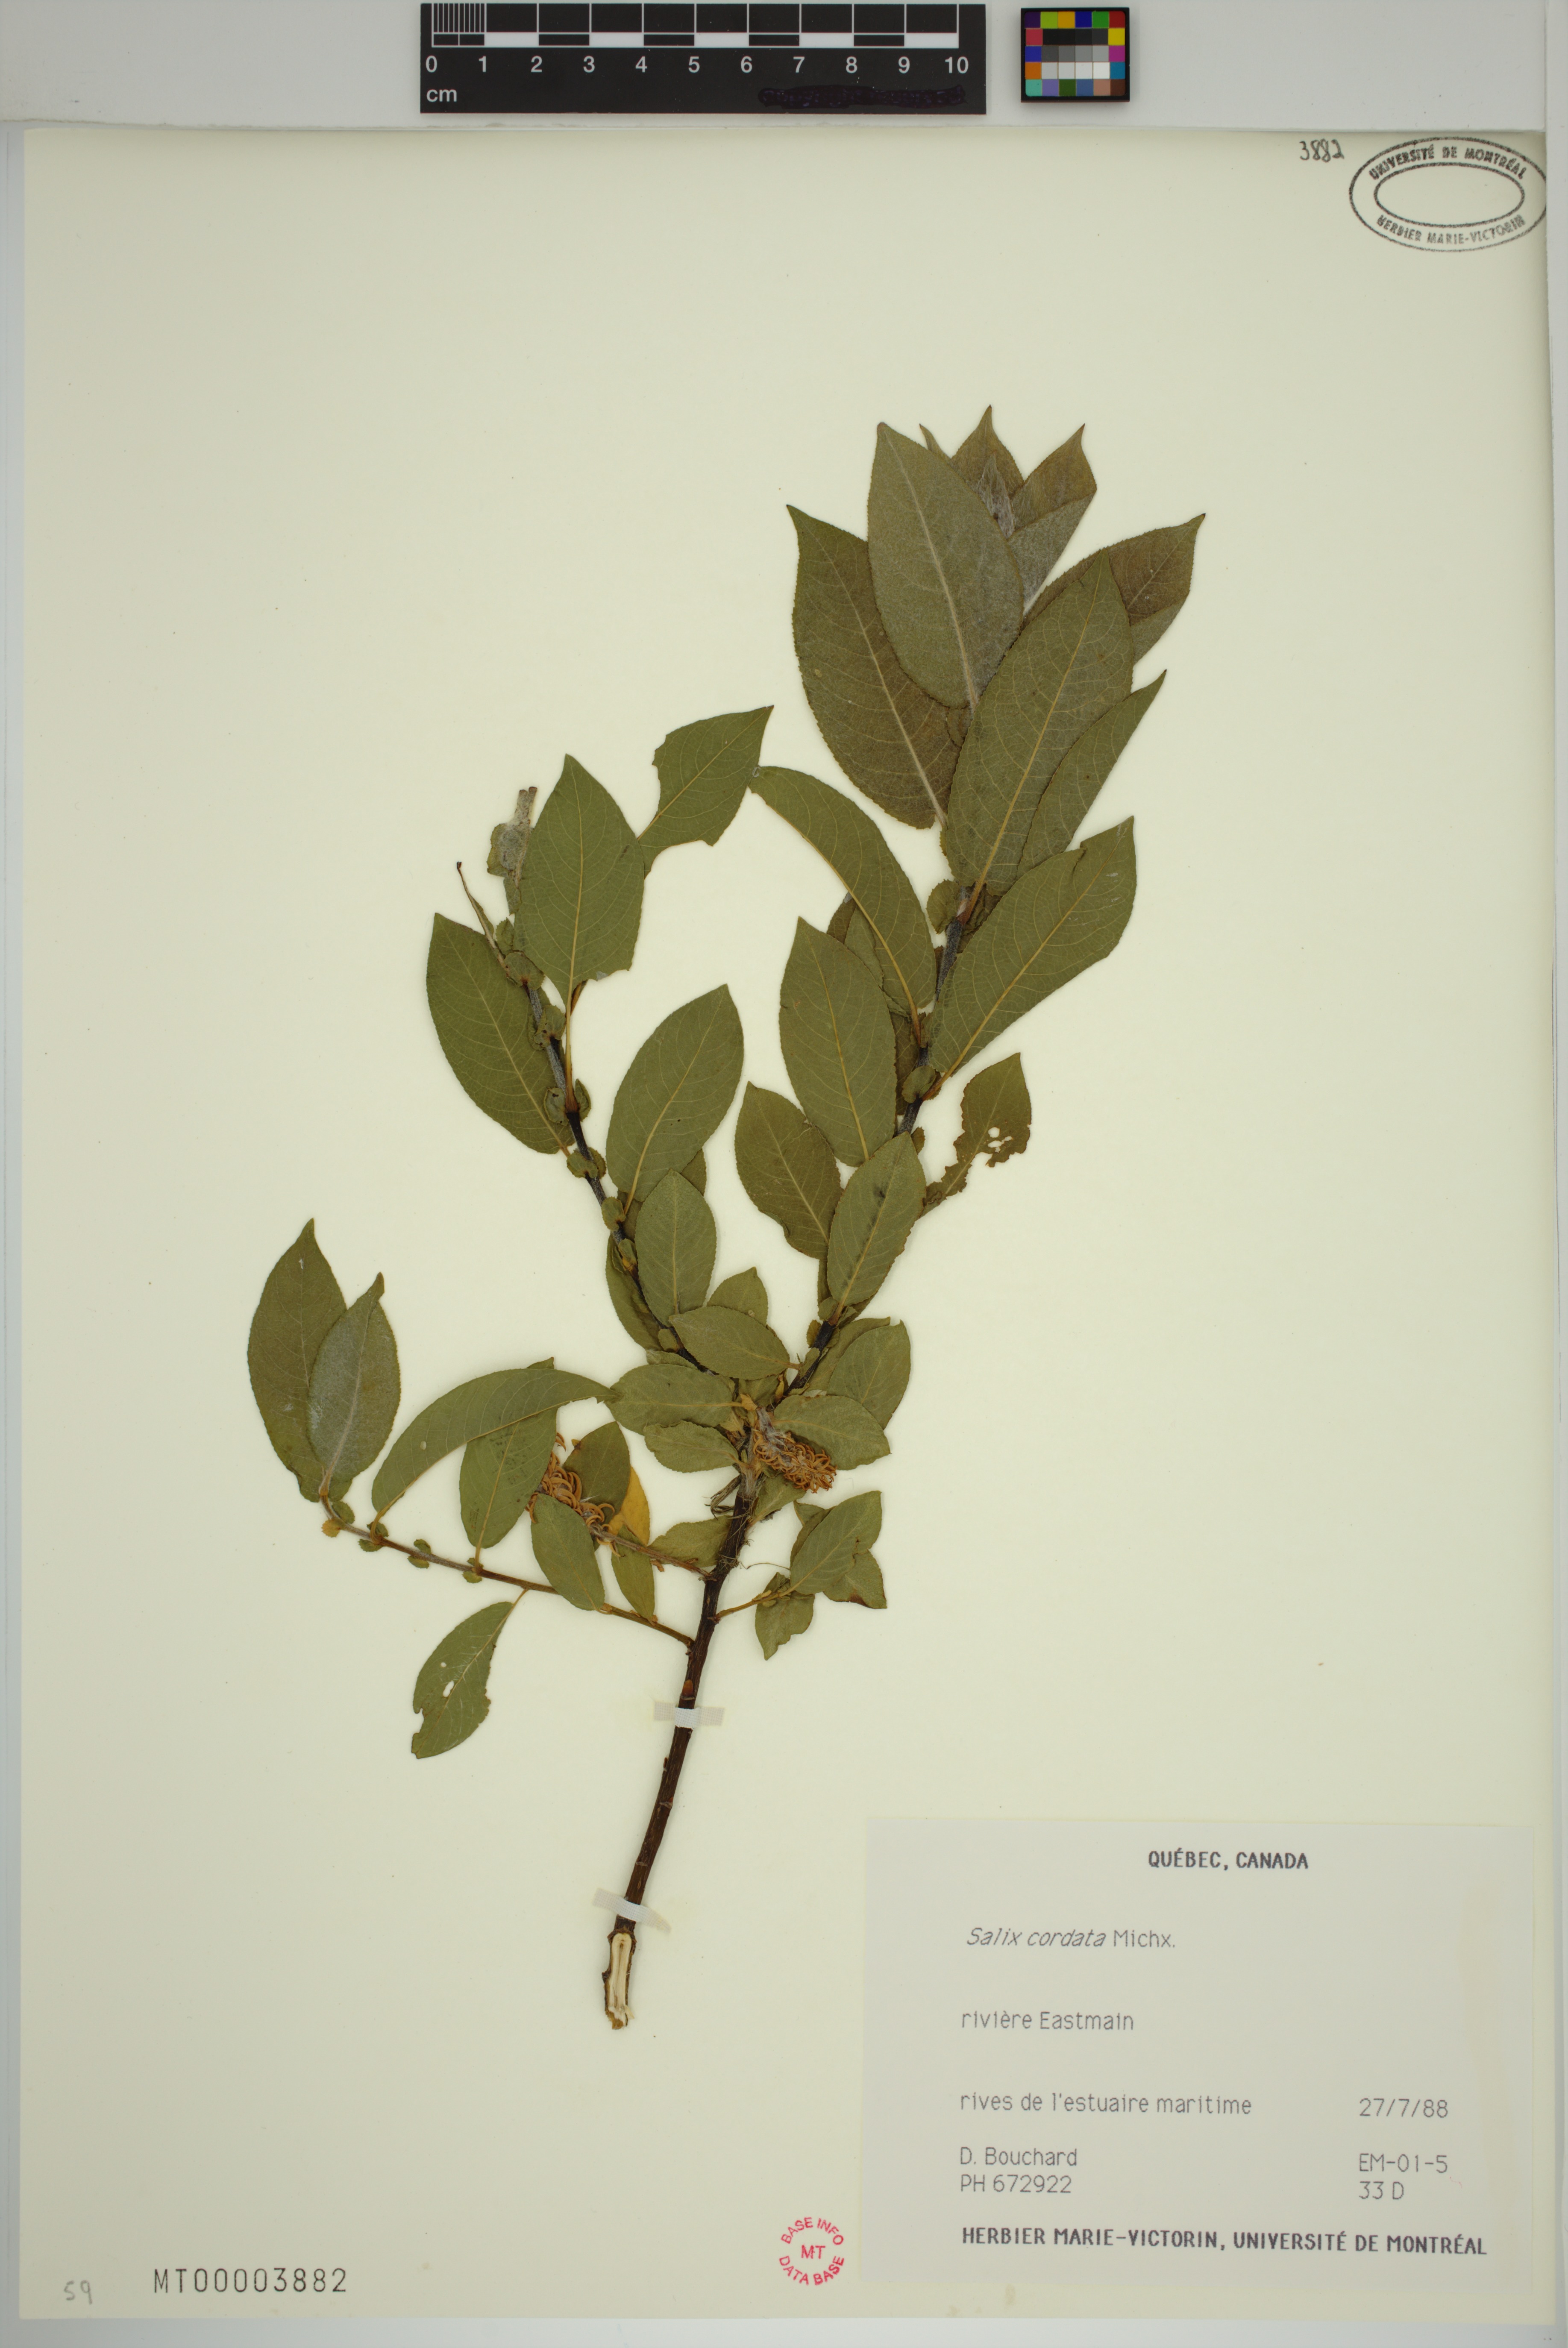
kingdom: Plantae
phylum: Tracheophyta
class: Magnoliopsida
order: Malpighiales
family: Salicaceae
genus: Salix
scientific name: Salix cordata
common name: Heart-leaf willow
